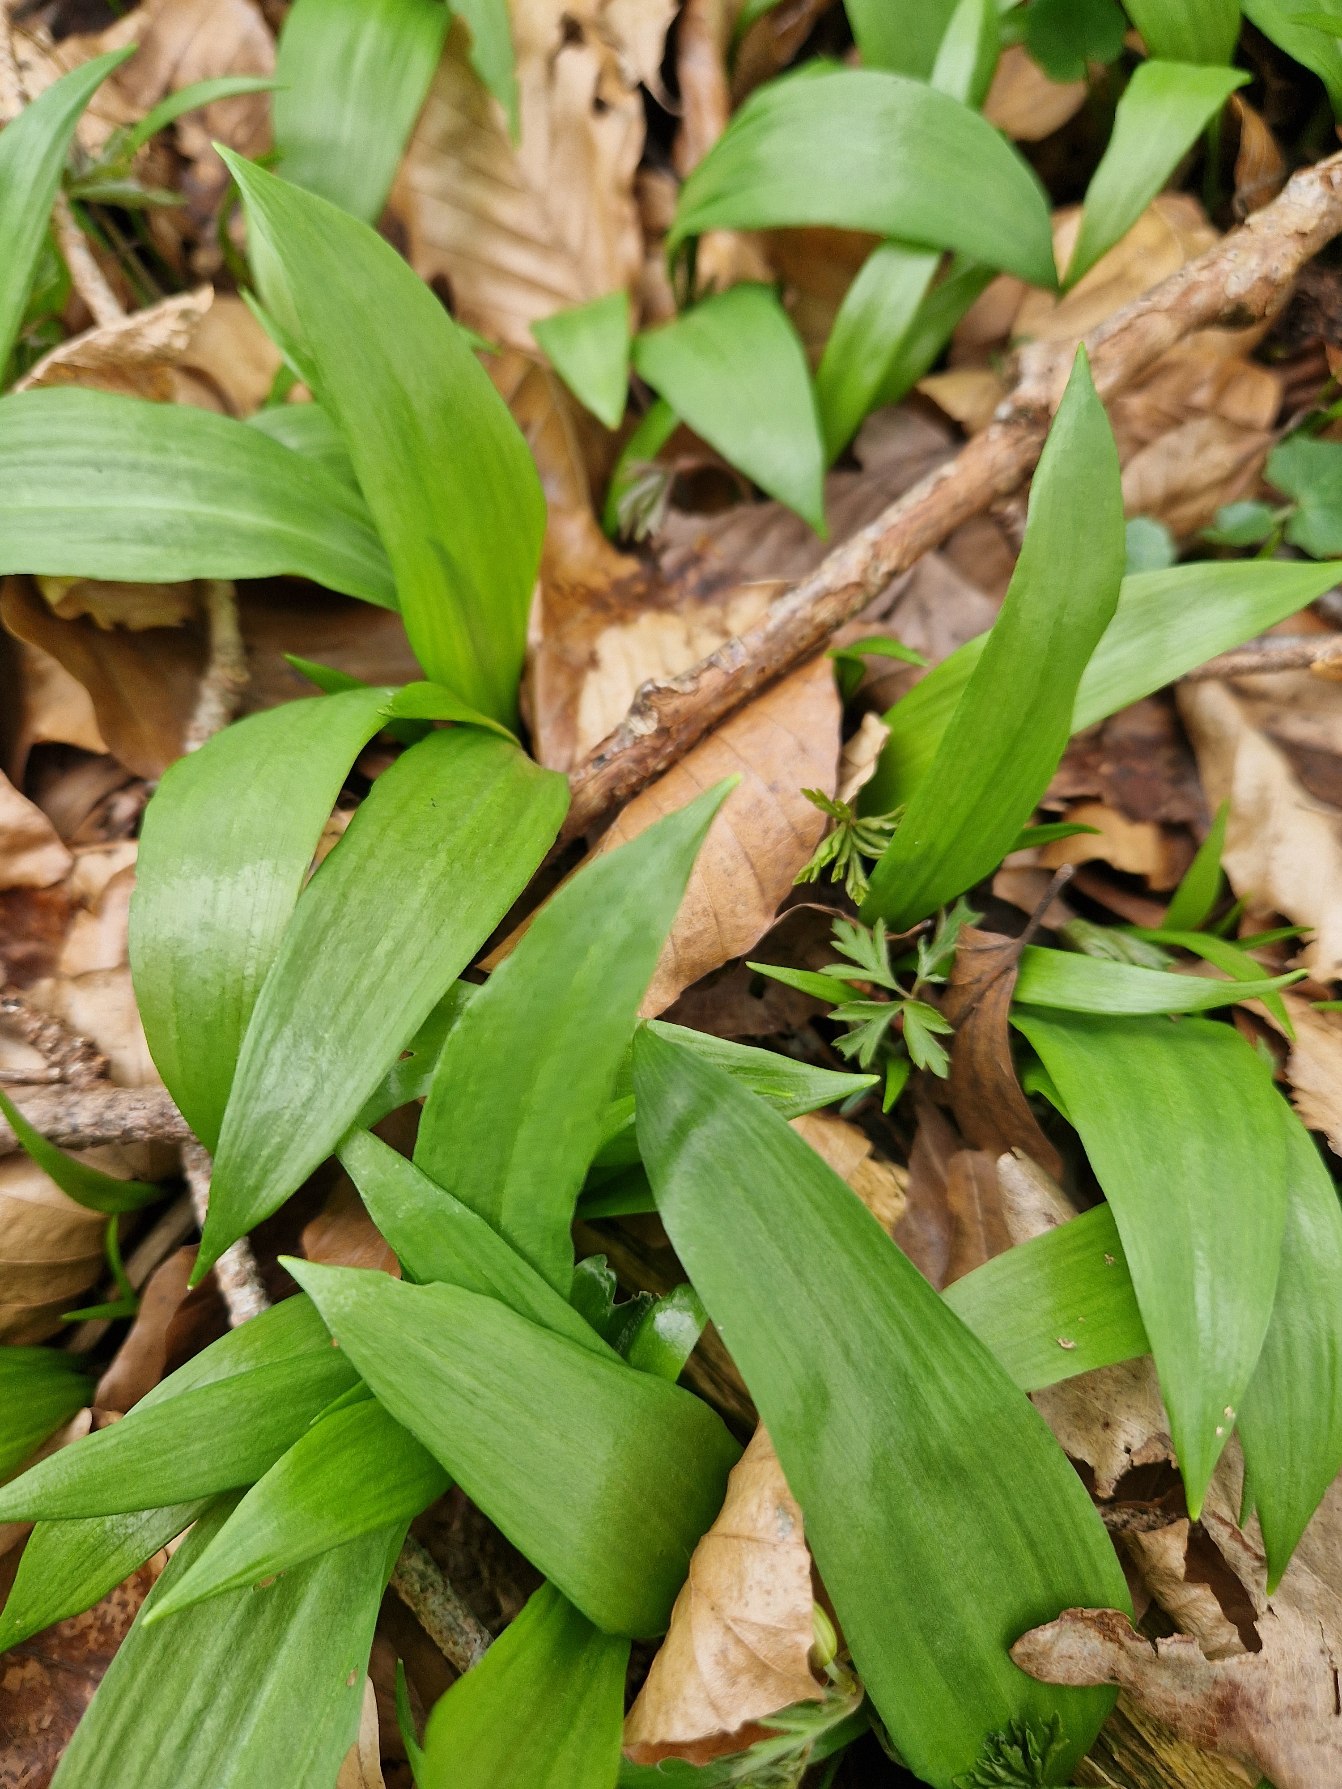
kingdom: Plantae
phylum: Tracheophyta
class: Liliopsida
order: Asparagales
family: Amaryllidaceae
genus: Allium
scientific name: Allium ursinum
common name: Rams-løg
